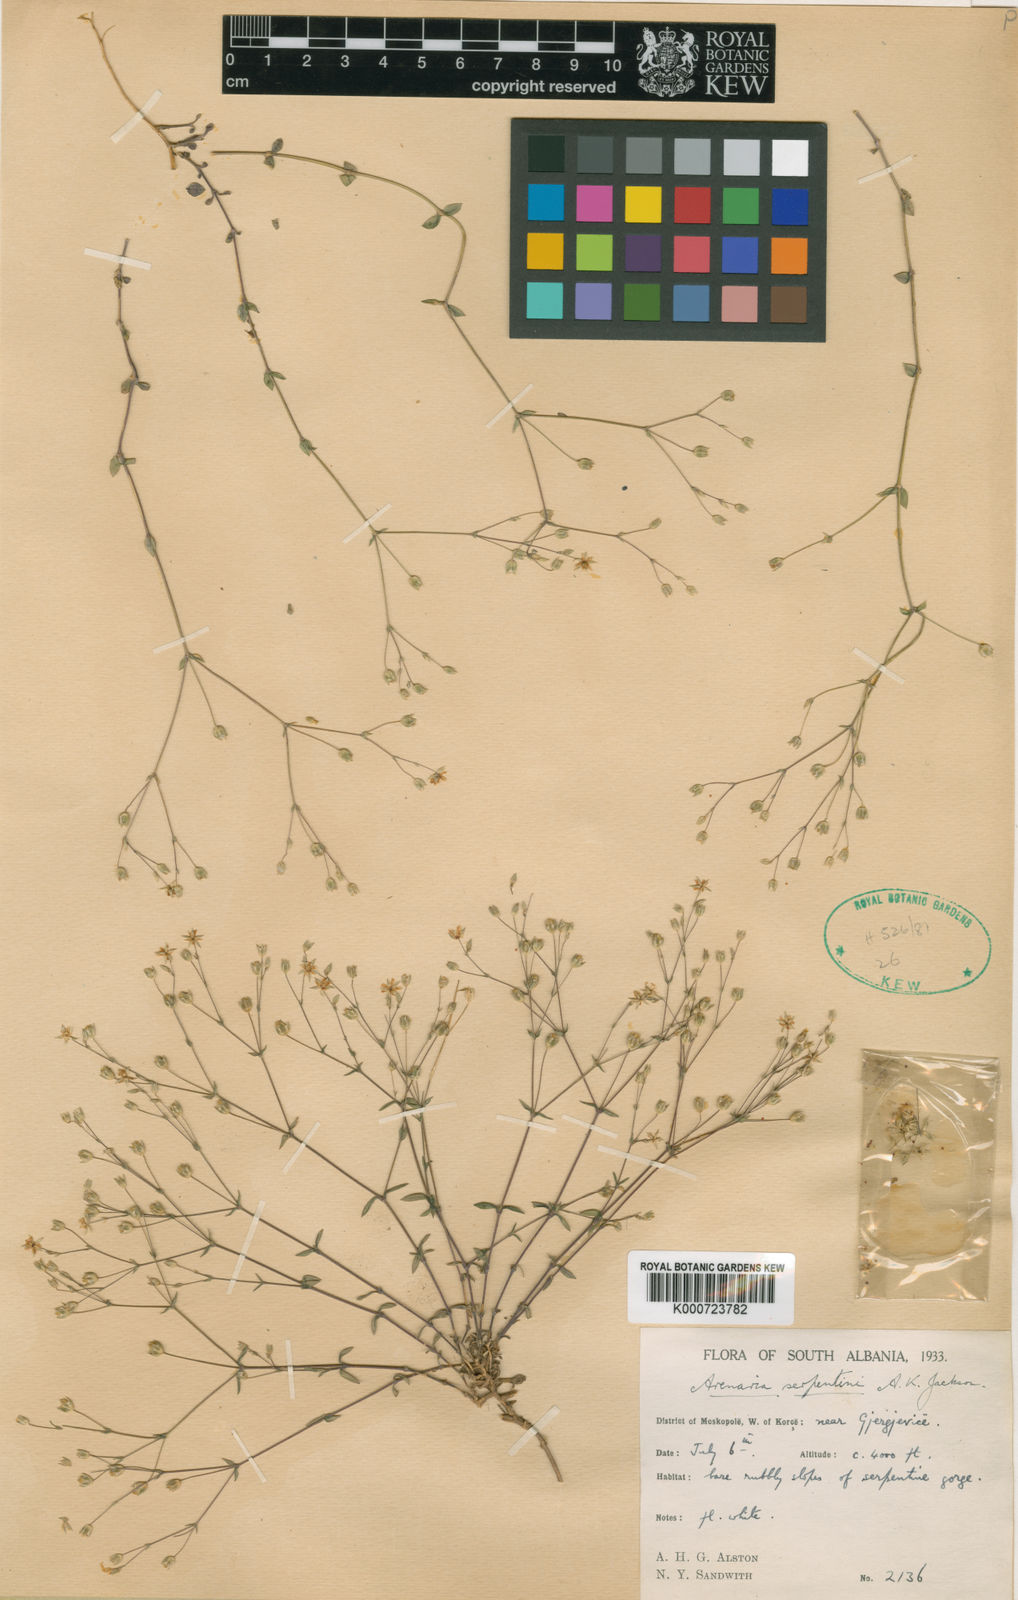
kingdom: Plantae
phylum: Tracheophyta
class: Magnoliopsida
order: Caryophyllales
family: Caryophyllaceae
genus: Arenaria
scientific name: Arenaria conferta
